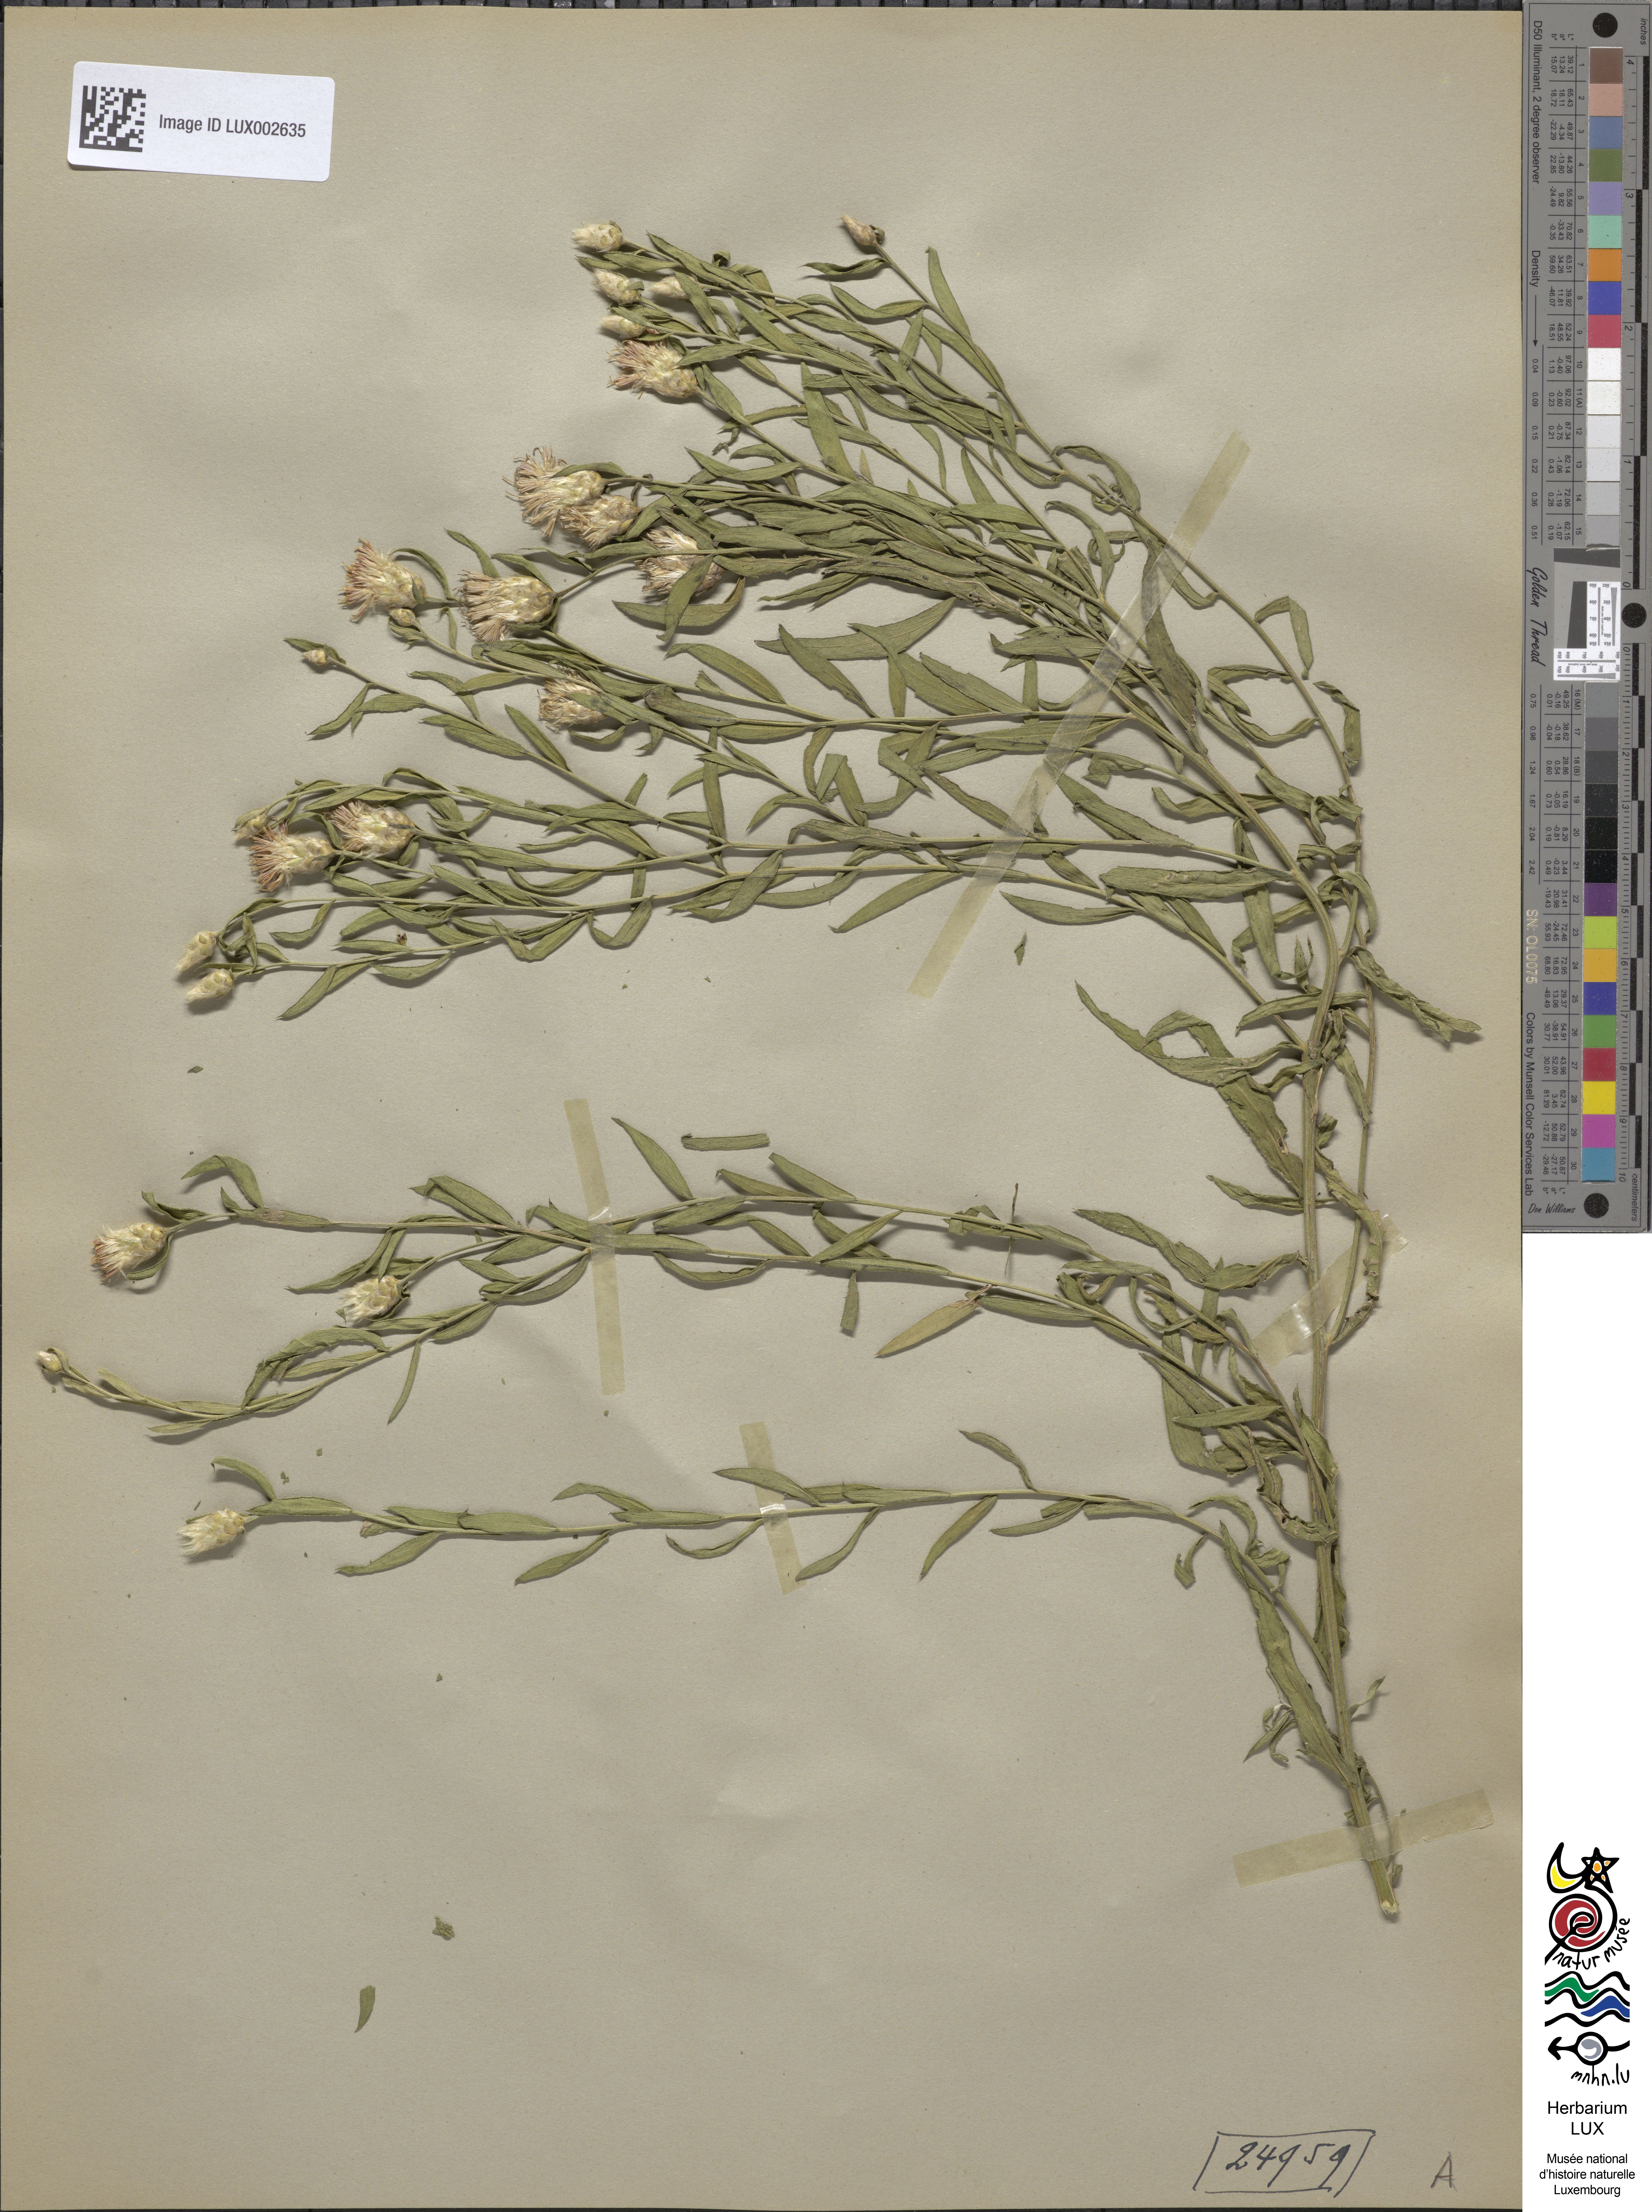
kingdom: Plantae
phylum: Tracheophyta
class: Magnoliopsida
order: Asterales
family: Asteraceae
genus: Leuzea
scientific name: Leuzea repens
